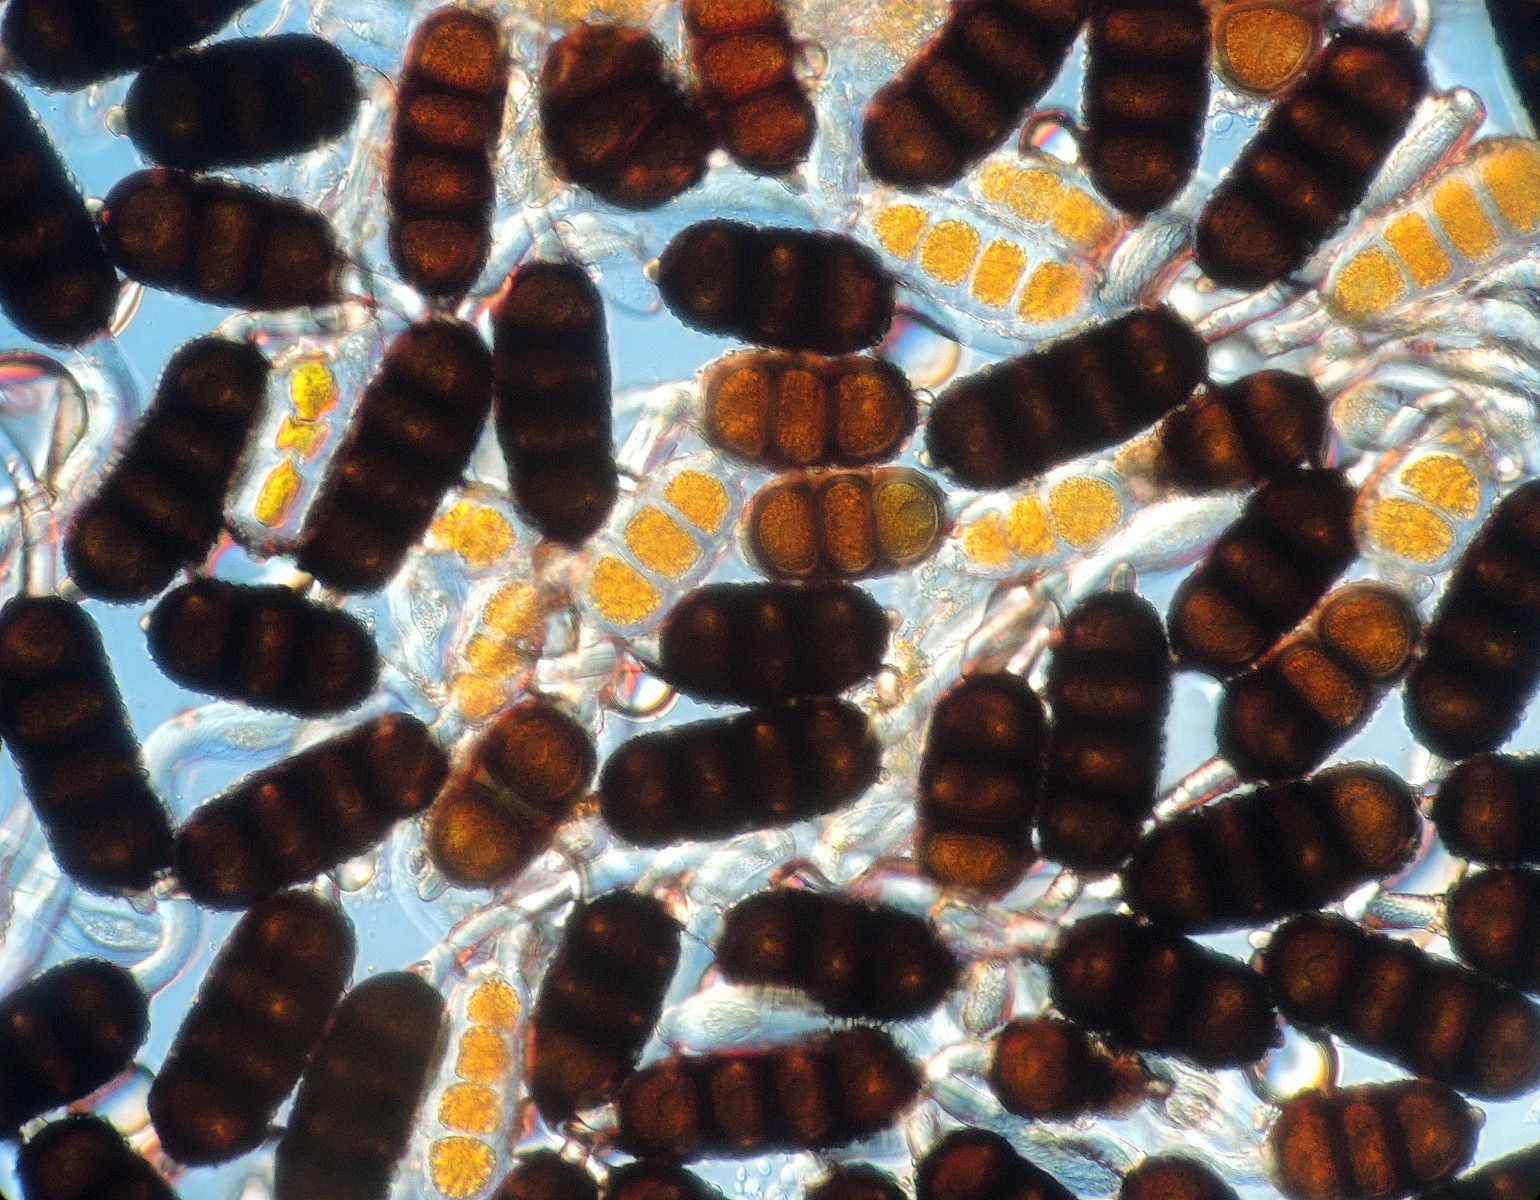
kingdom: Fungi
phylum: Basidiomycota
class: Pucciniomycetes
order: Pucciniales
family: Phragmidiaceae
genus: Phragmidium
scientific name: Phragmidium violaceum
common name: violet flercellerust
